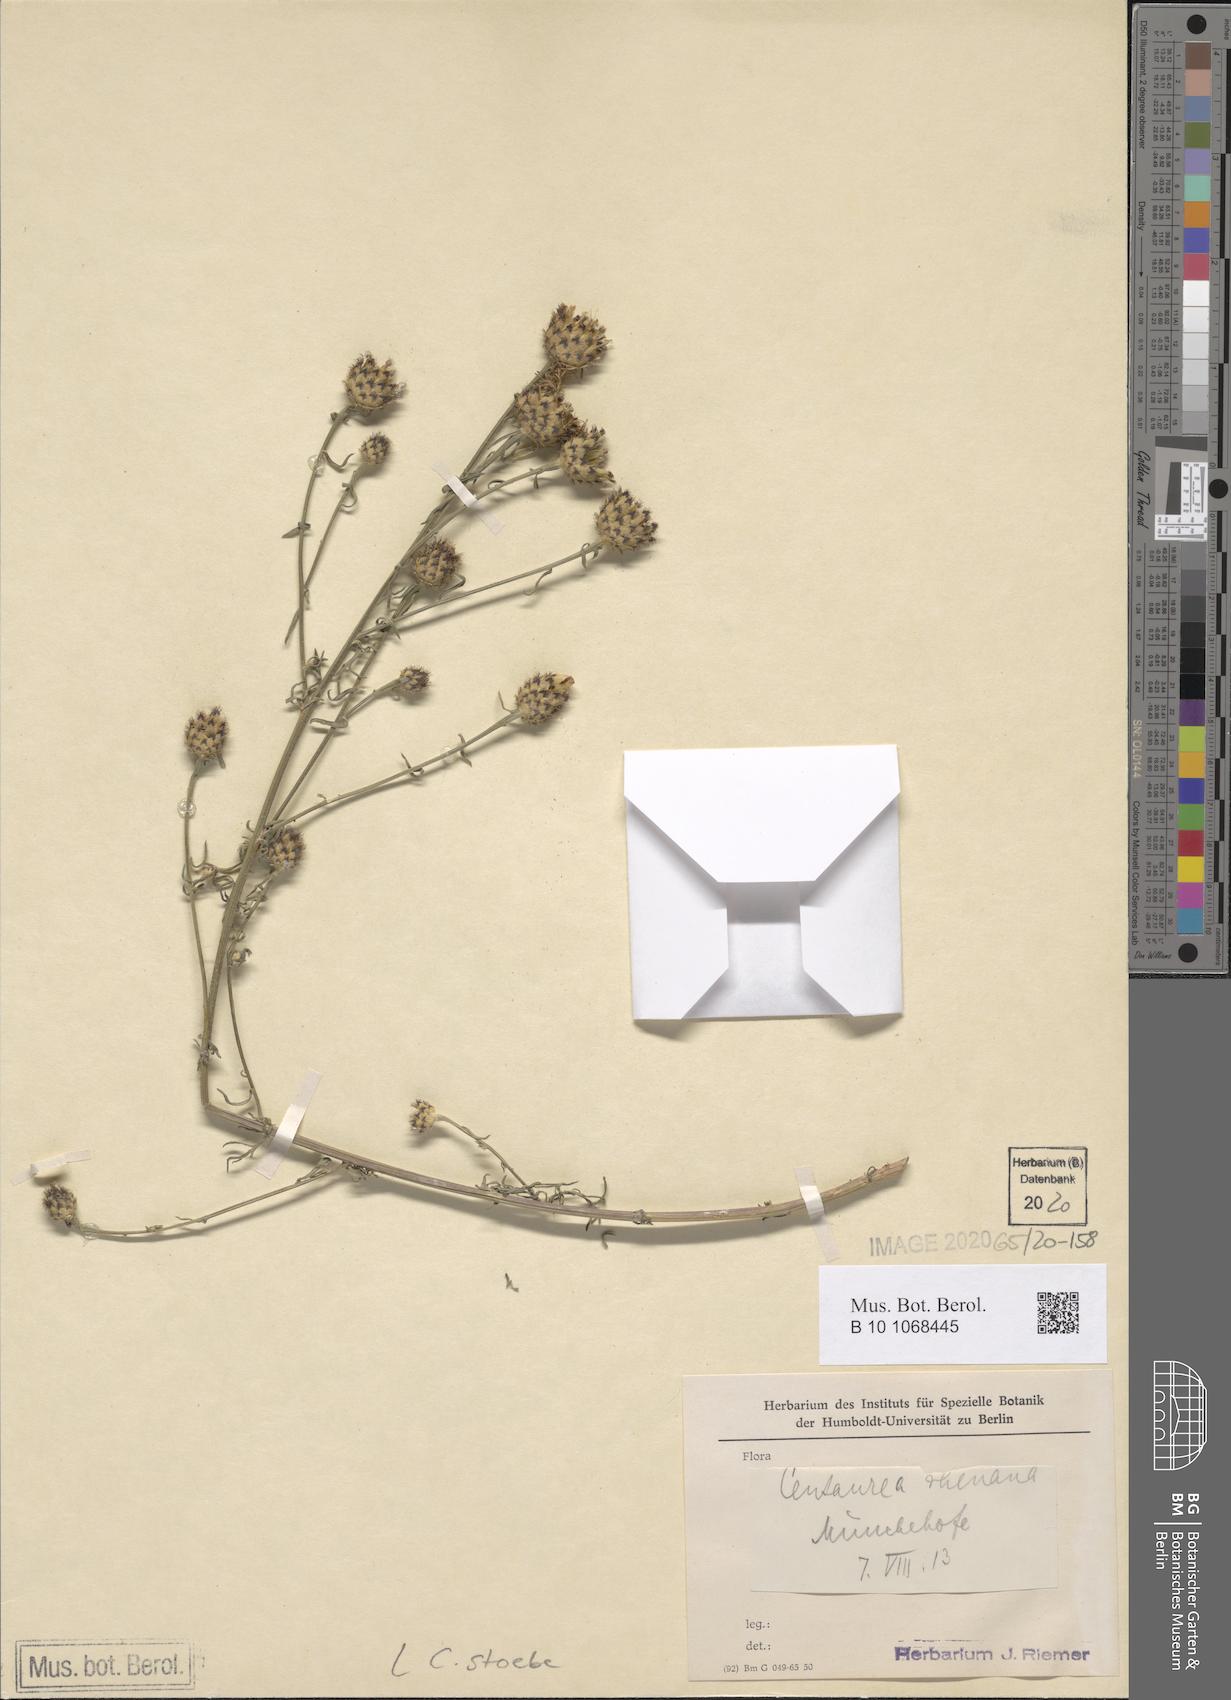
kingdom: Plantae
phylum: Tracheophyta
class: Magnoliopsida
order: Asterales
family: Asteraceae
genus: Centaurea
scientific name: Centaurea stoebe
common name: Spotted knapweed
